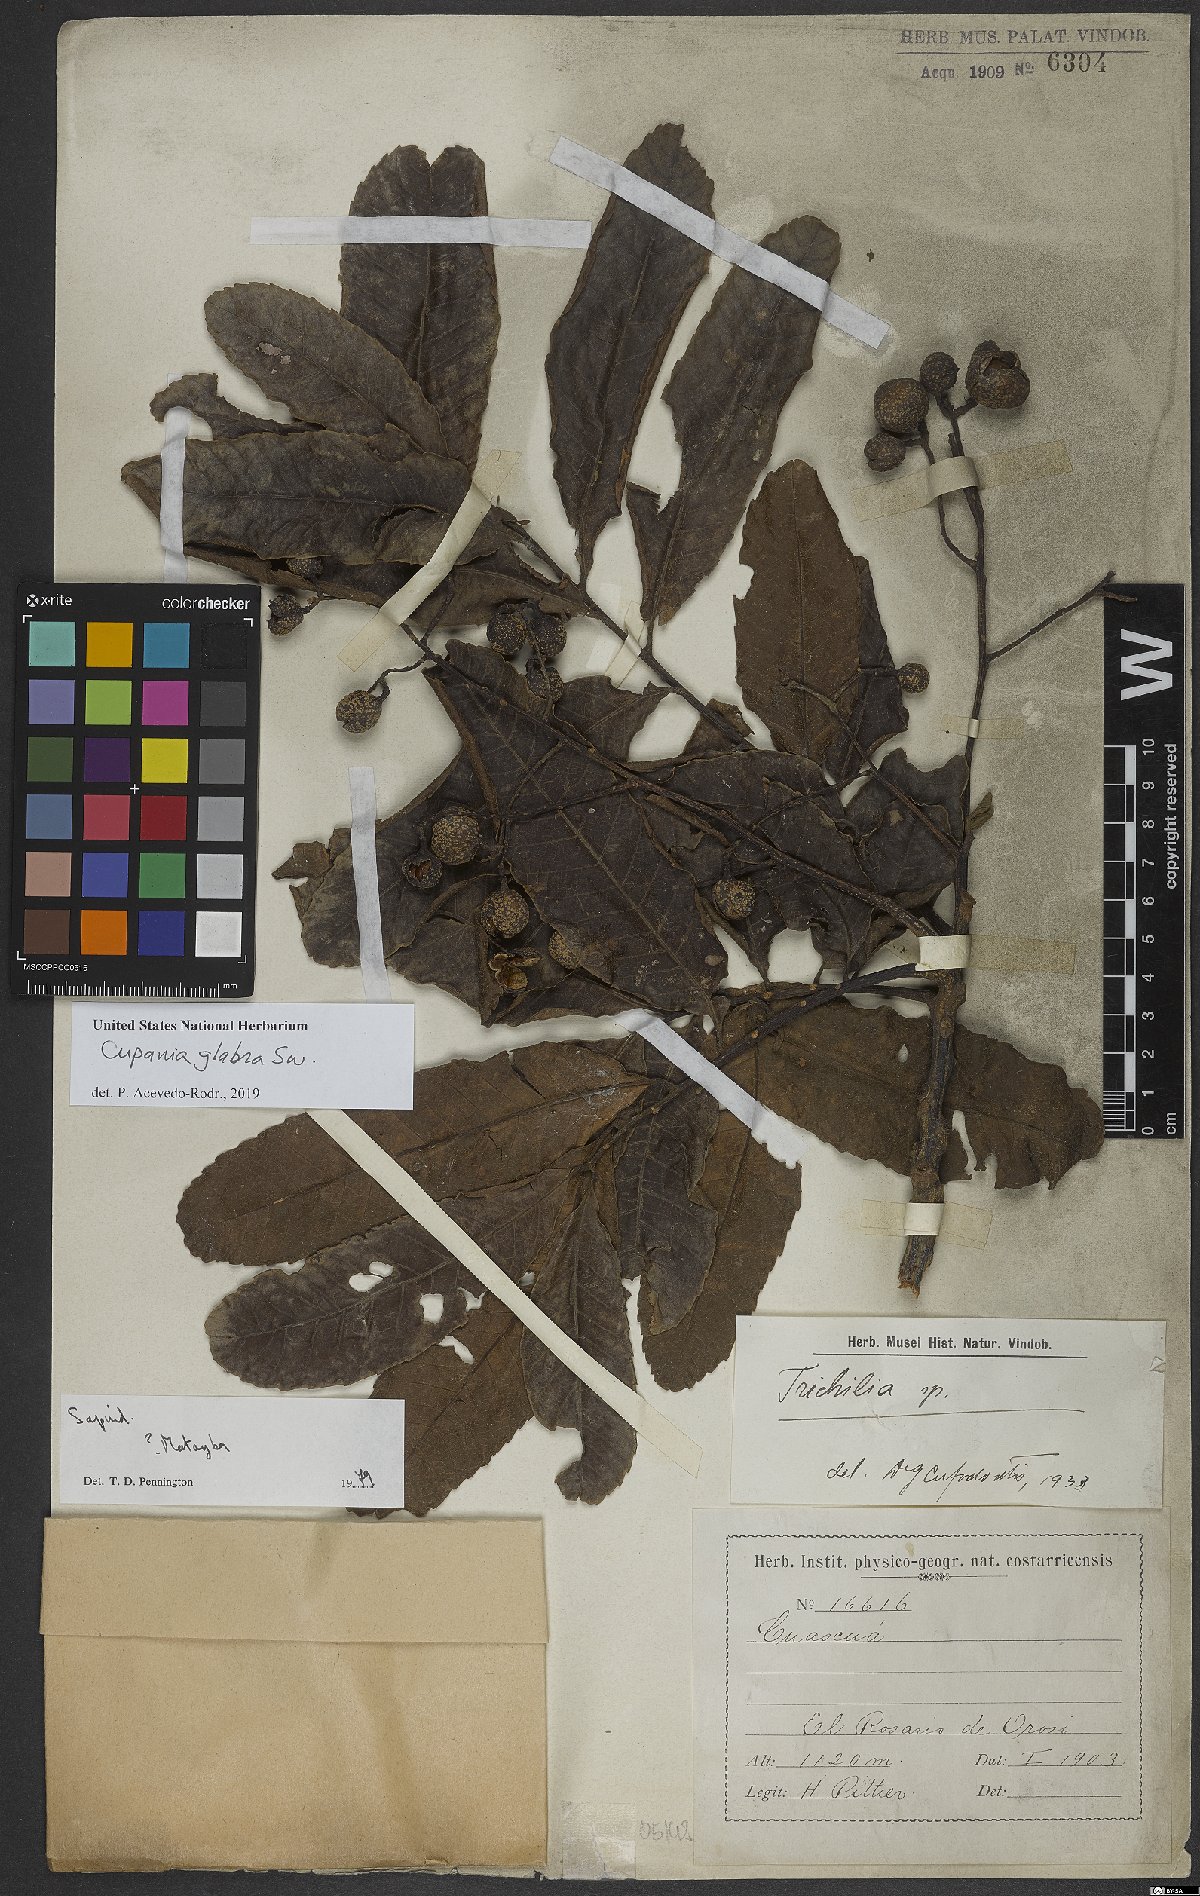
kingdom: Plantae
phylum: Tracheophyta
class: Magnoliopsida
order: Sapindales
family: Sapindaceae
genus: Cupania
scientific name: Cupania glabra
